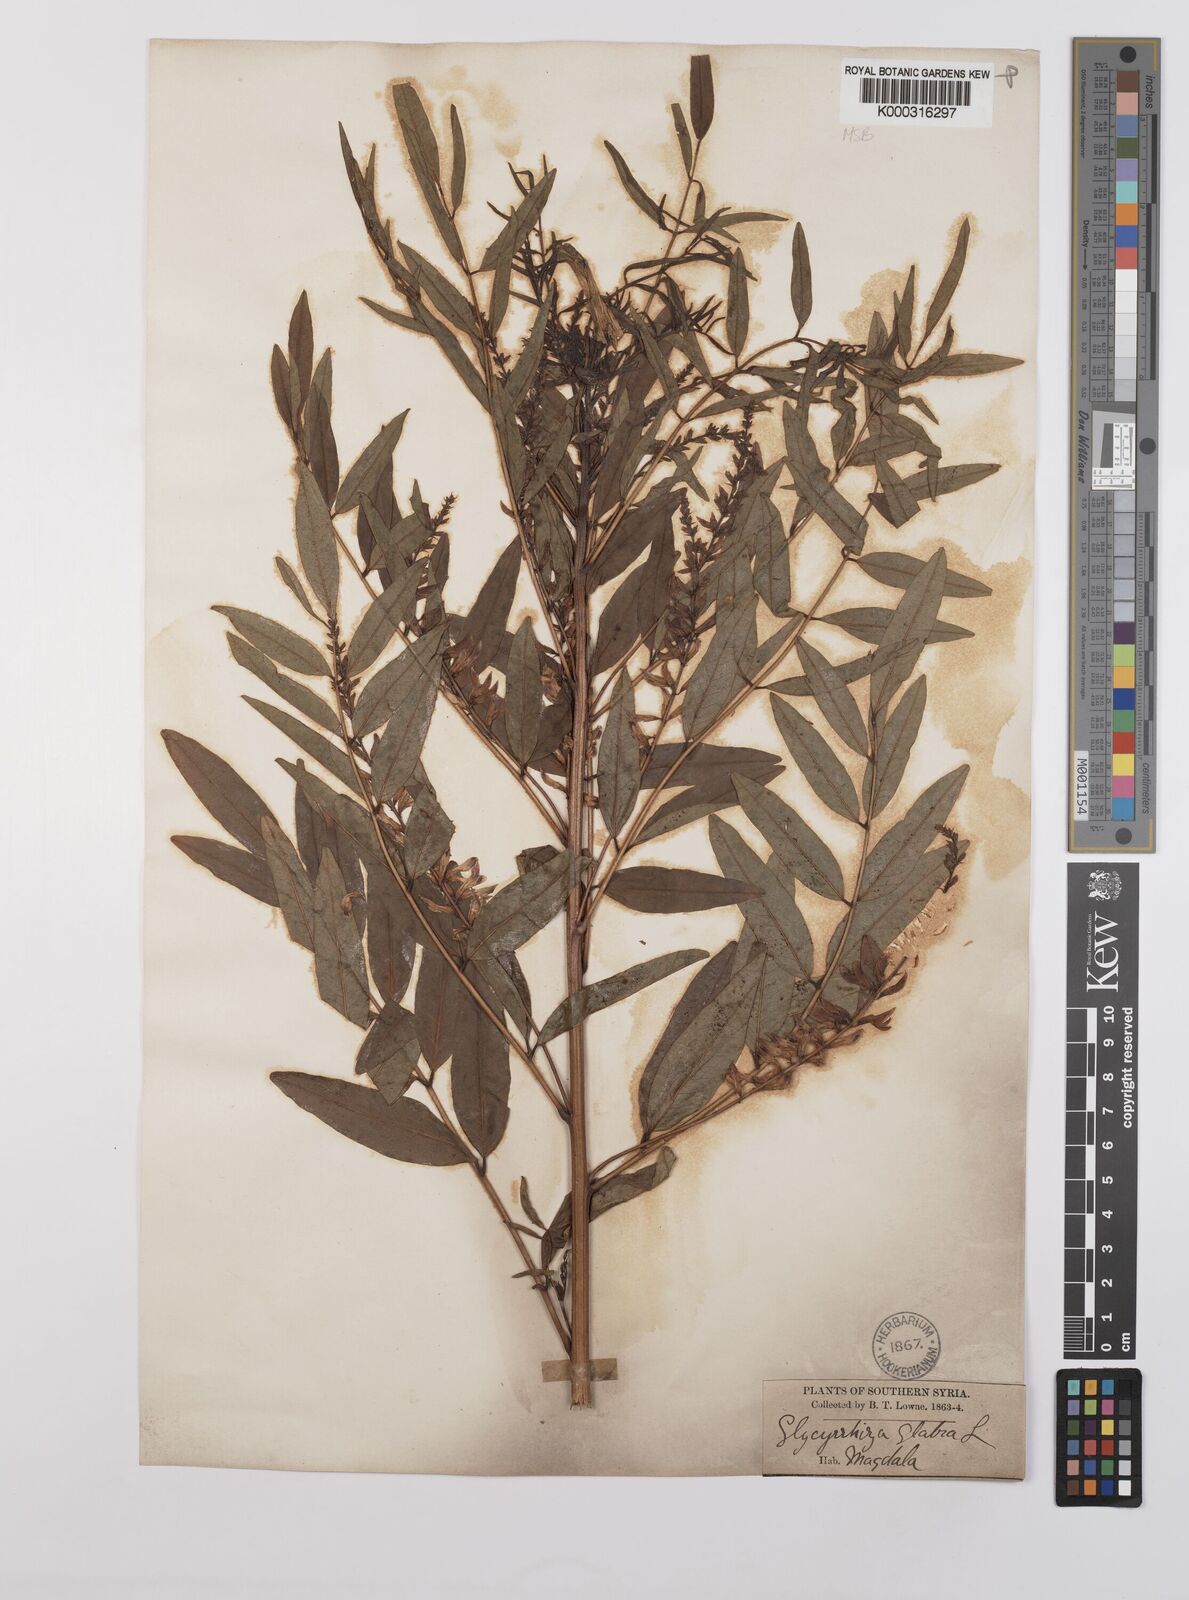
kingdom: Plantae
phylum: Tracheophyta
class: Magnoliopsida
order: Fabales
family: Fabaceae
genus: Glycyrrhiza
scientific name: Glycyrrhiza glabra
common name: Liquorice
